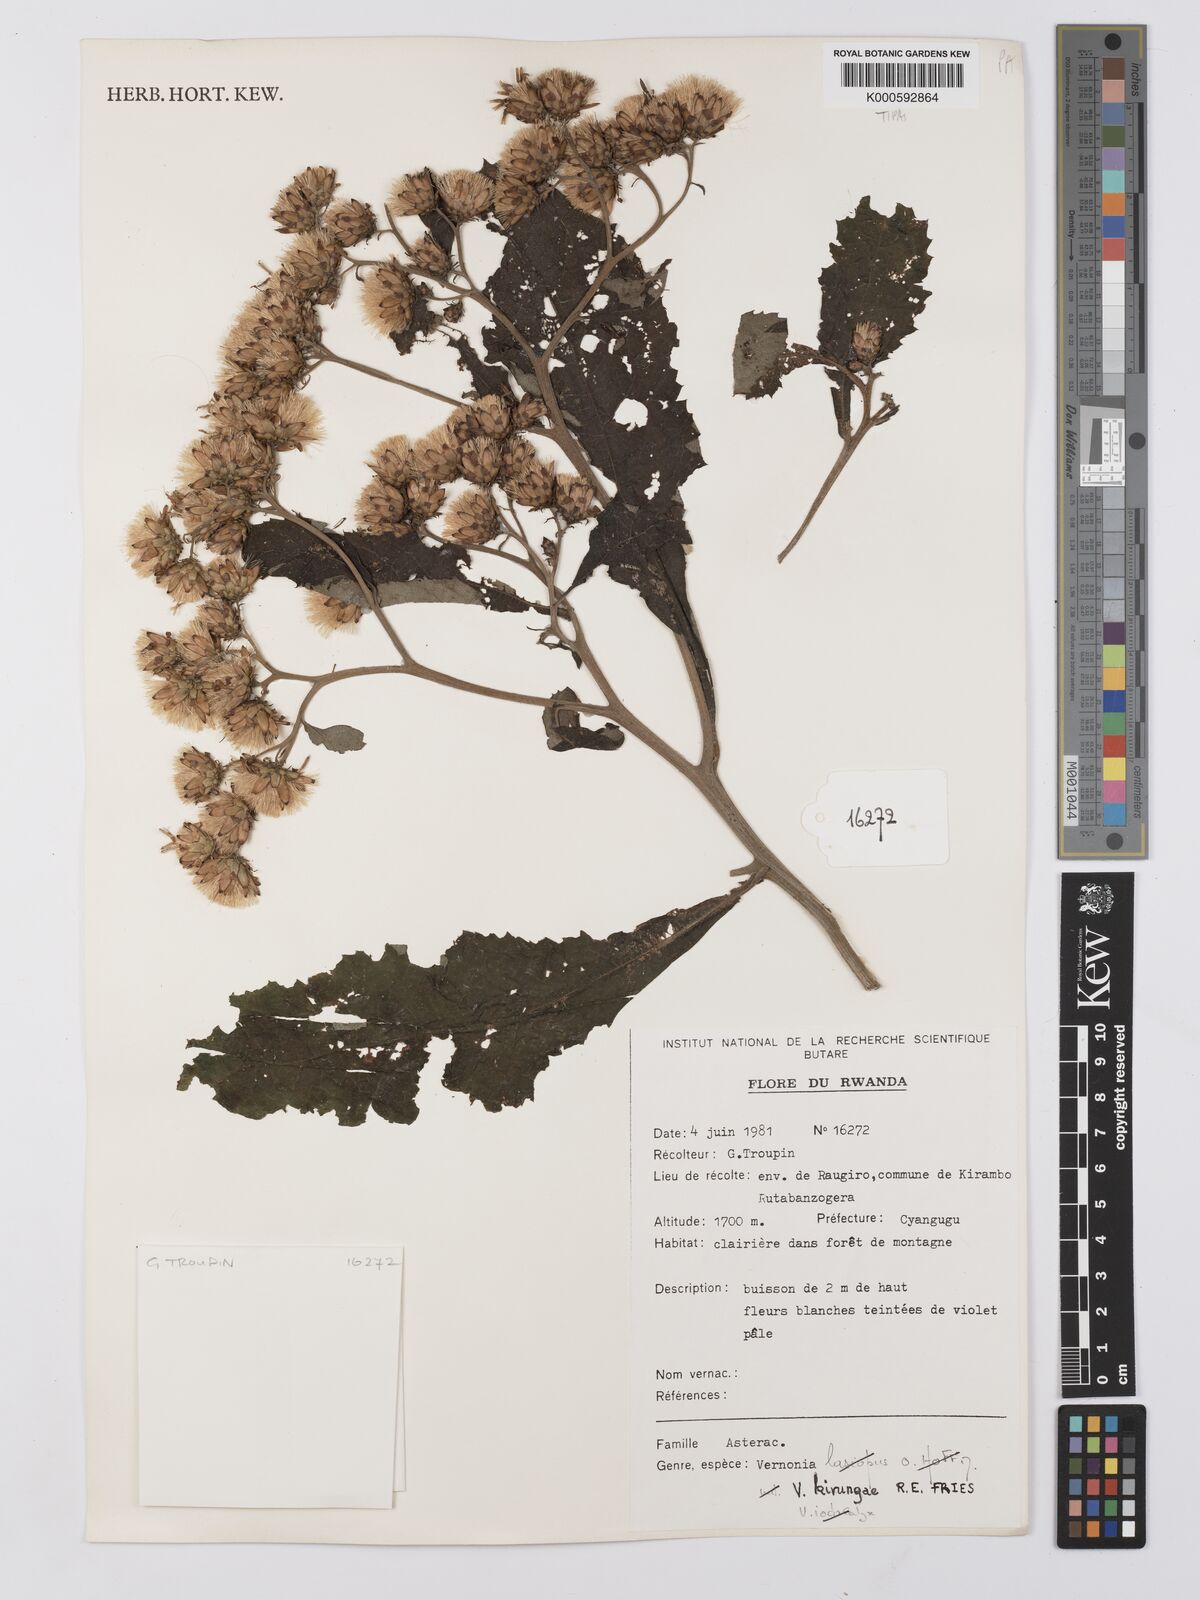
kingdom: Plantae
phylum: Tracheophyta
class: Magnoliopsida
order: Asterales
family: Asteraceae
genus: Baccharoides
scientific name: Baccharoides kirungae
